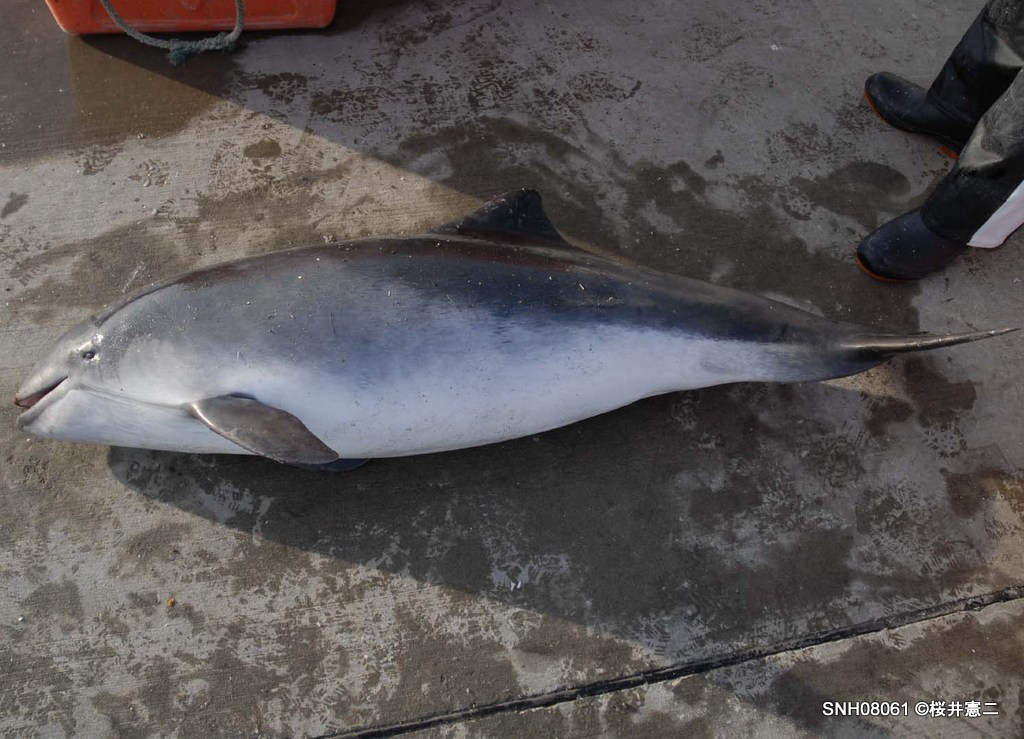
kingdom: Animalia
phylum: Chordata
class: Mammalia
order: Cetacea
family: Phocoenidae
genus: Phocoena
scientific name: Phocoena phocoena
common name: Harbour porpoise
